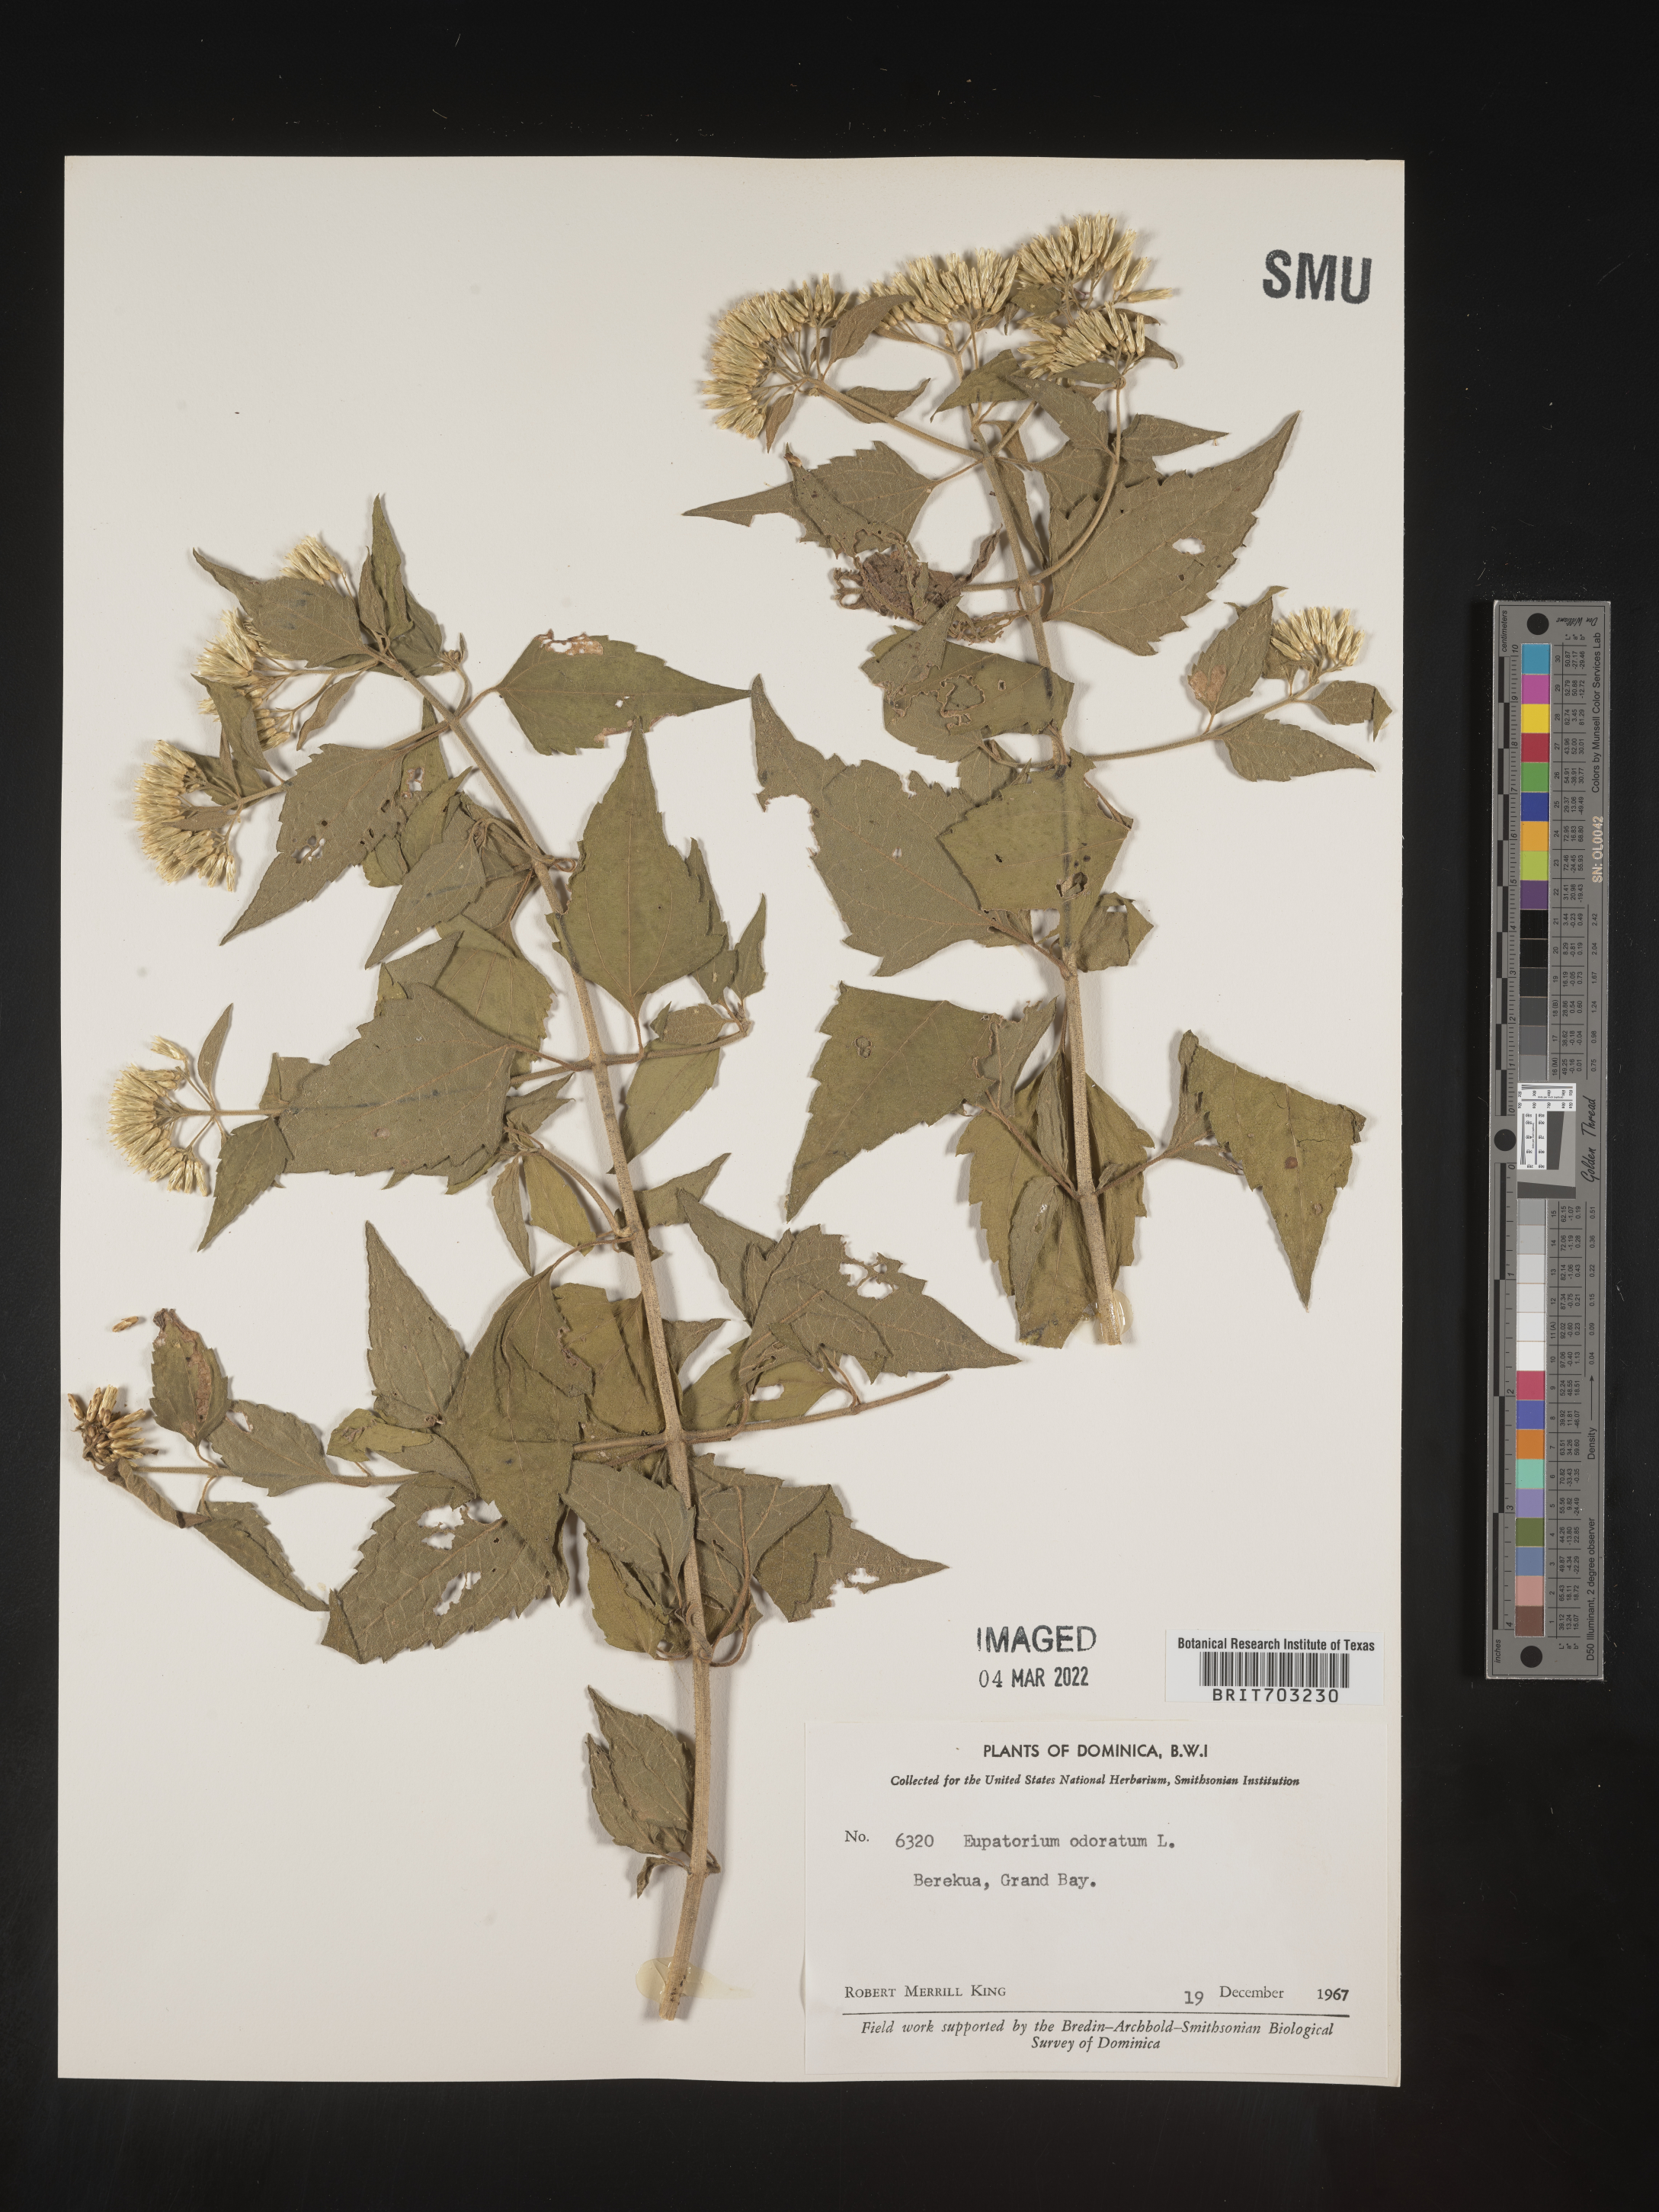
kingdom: Plantae
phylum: Tracheophyta
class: Magnoliopsida
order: Asterales
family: Asteraceae
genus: Eupatorium
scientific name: Eupatorium
